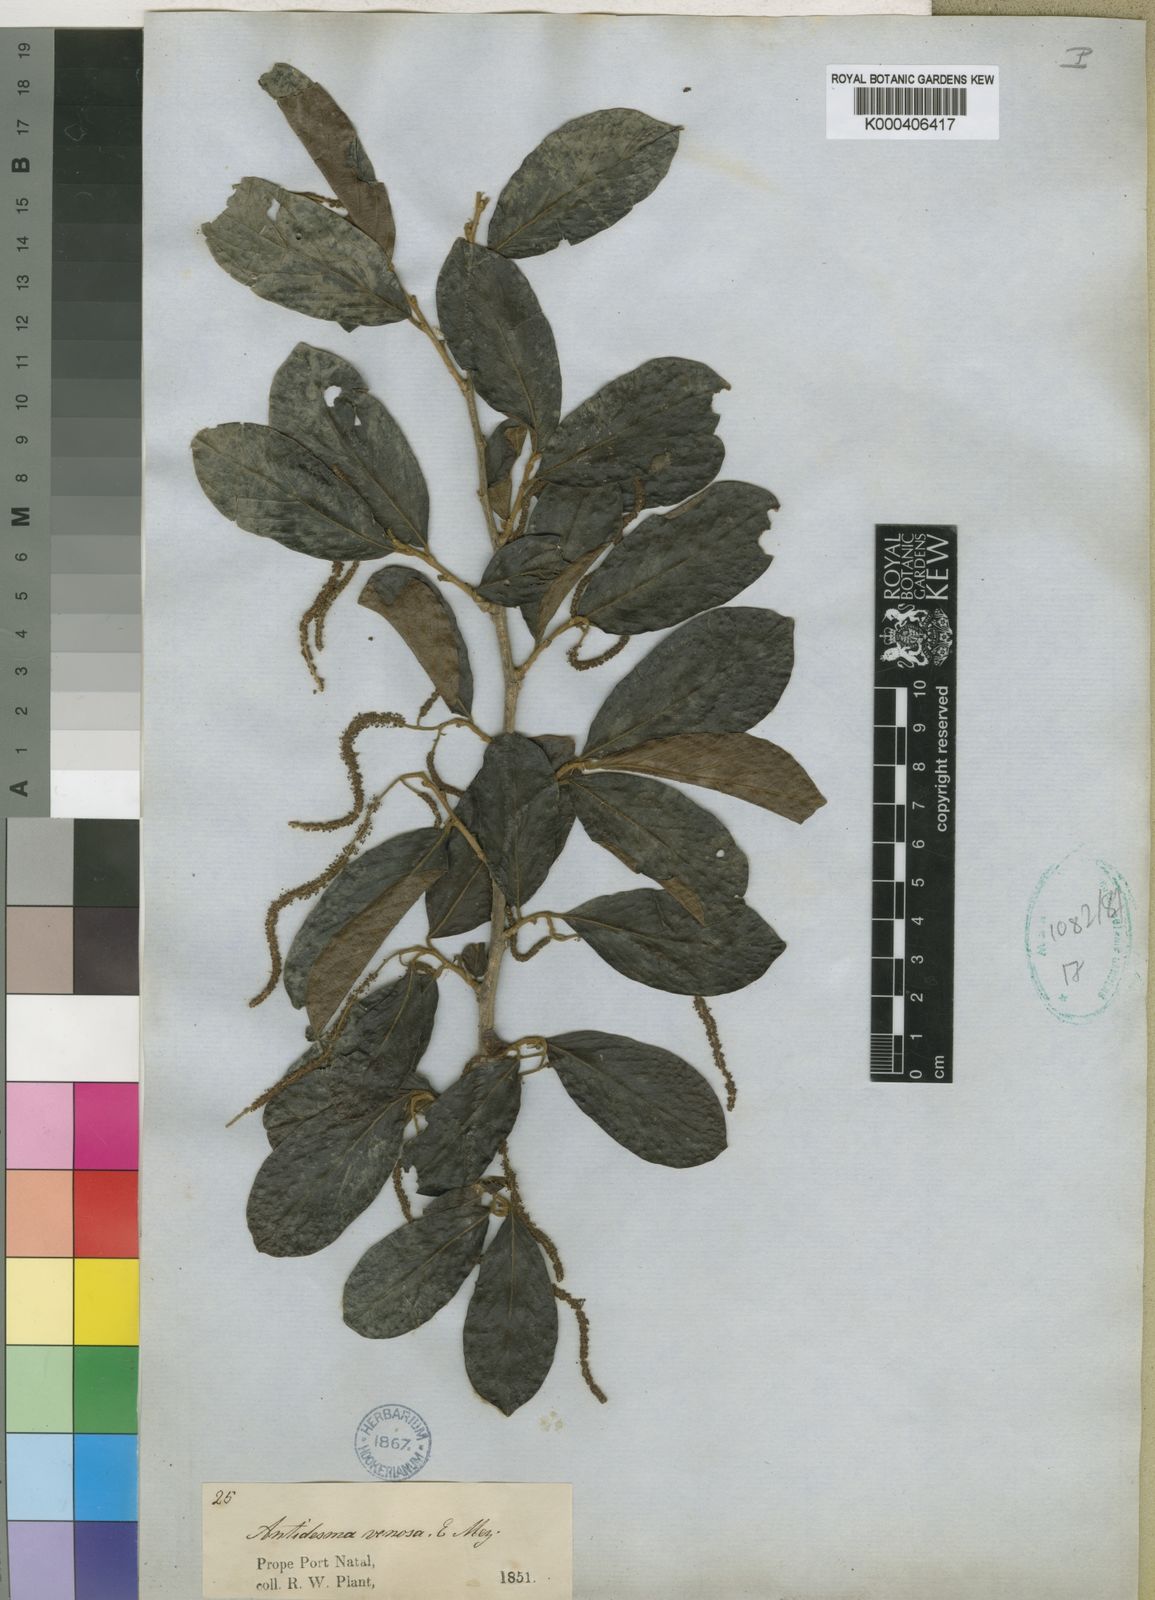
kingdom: Plantae
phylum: Tracheophyta
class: Magnoliopsida
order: Malpighiales
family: Phyllanthaceae
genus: Antidesma
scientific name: Antidesma venosum
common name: Tassel-berry
